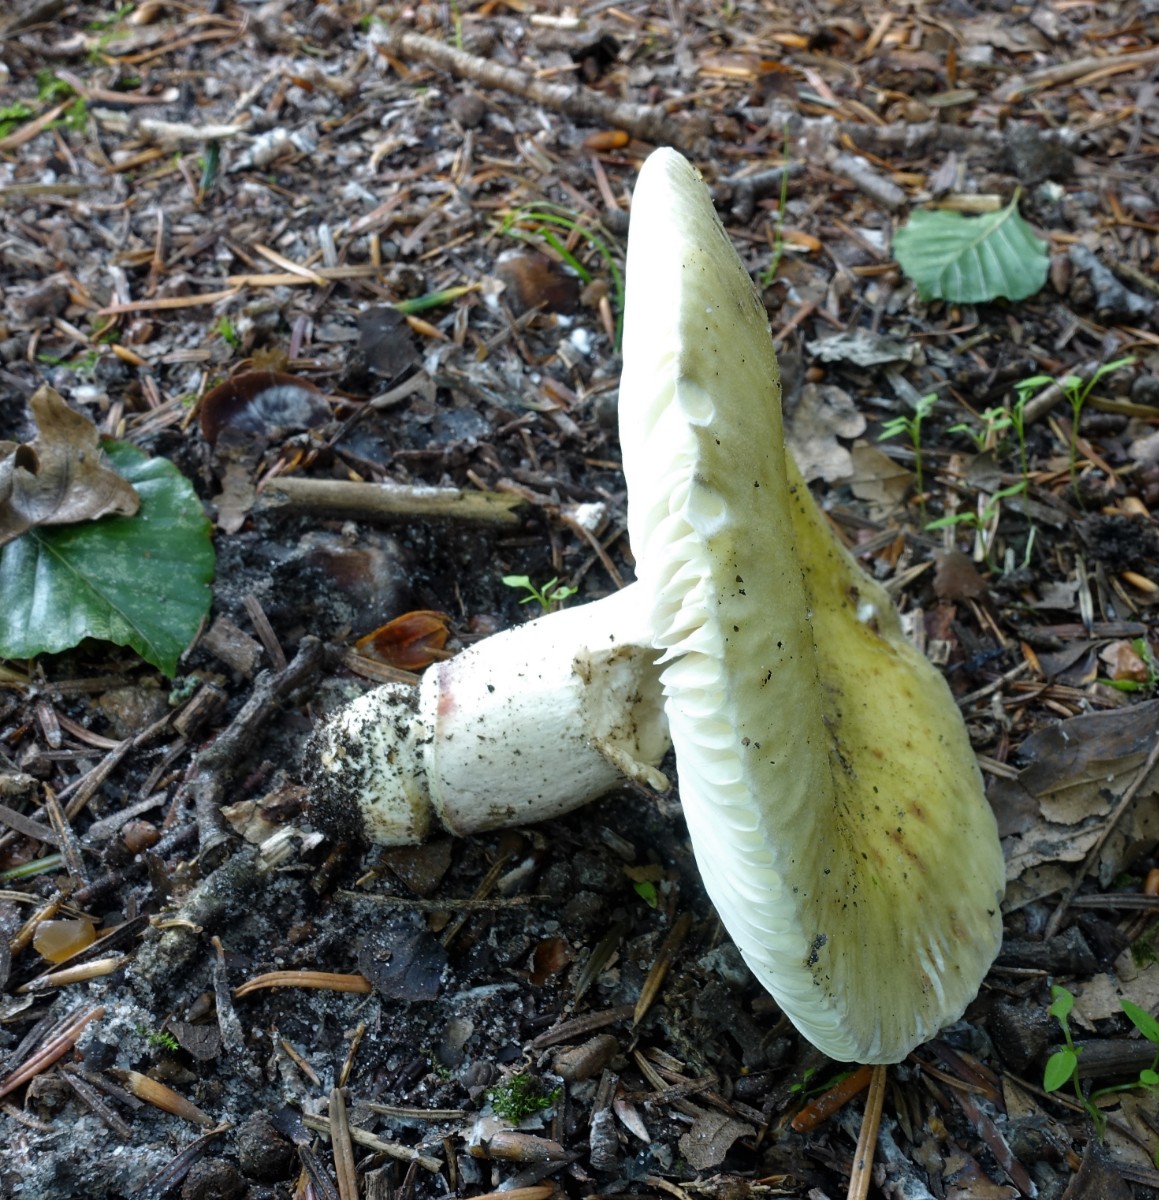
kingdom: Fungi
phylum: Basidiomycota
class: Agaricomycetes
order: Russulales
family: Russulaceae
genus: Russula
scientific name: Russula violeipes
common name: ferskengul skørhat
